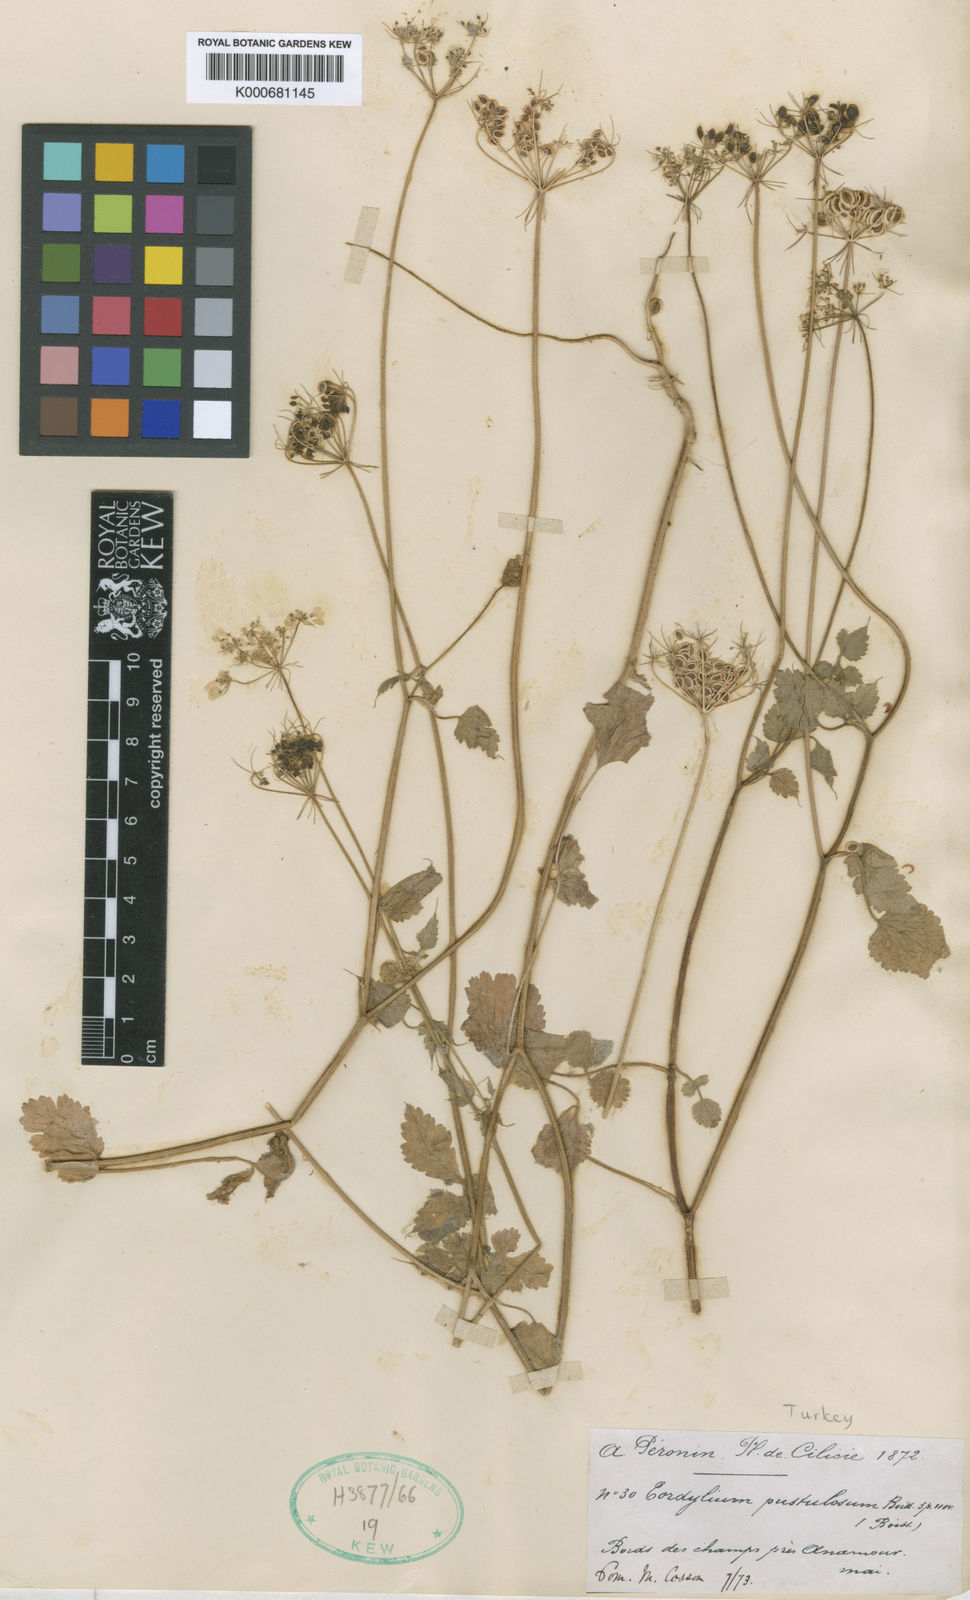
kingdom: Plantae
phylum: Tracheophyta
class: Magnoliopsida
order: Apiales
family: Apiaceae
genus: Tordylium
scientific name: Tordylium pustulosum
